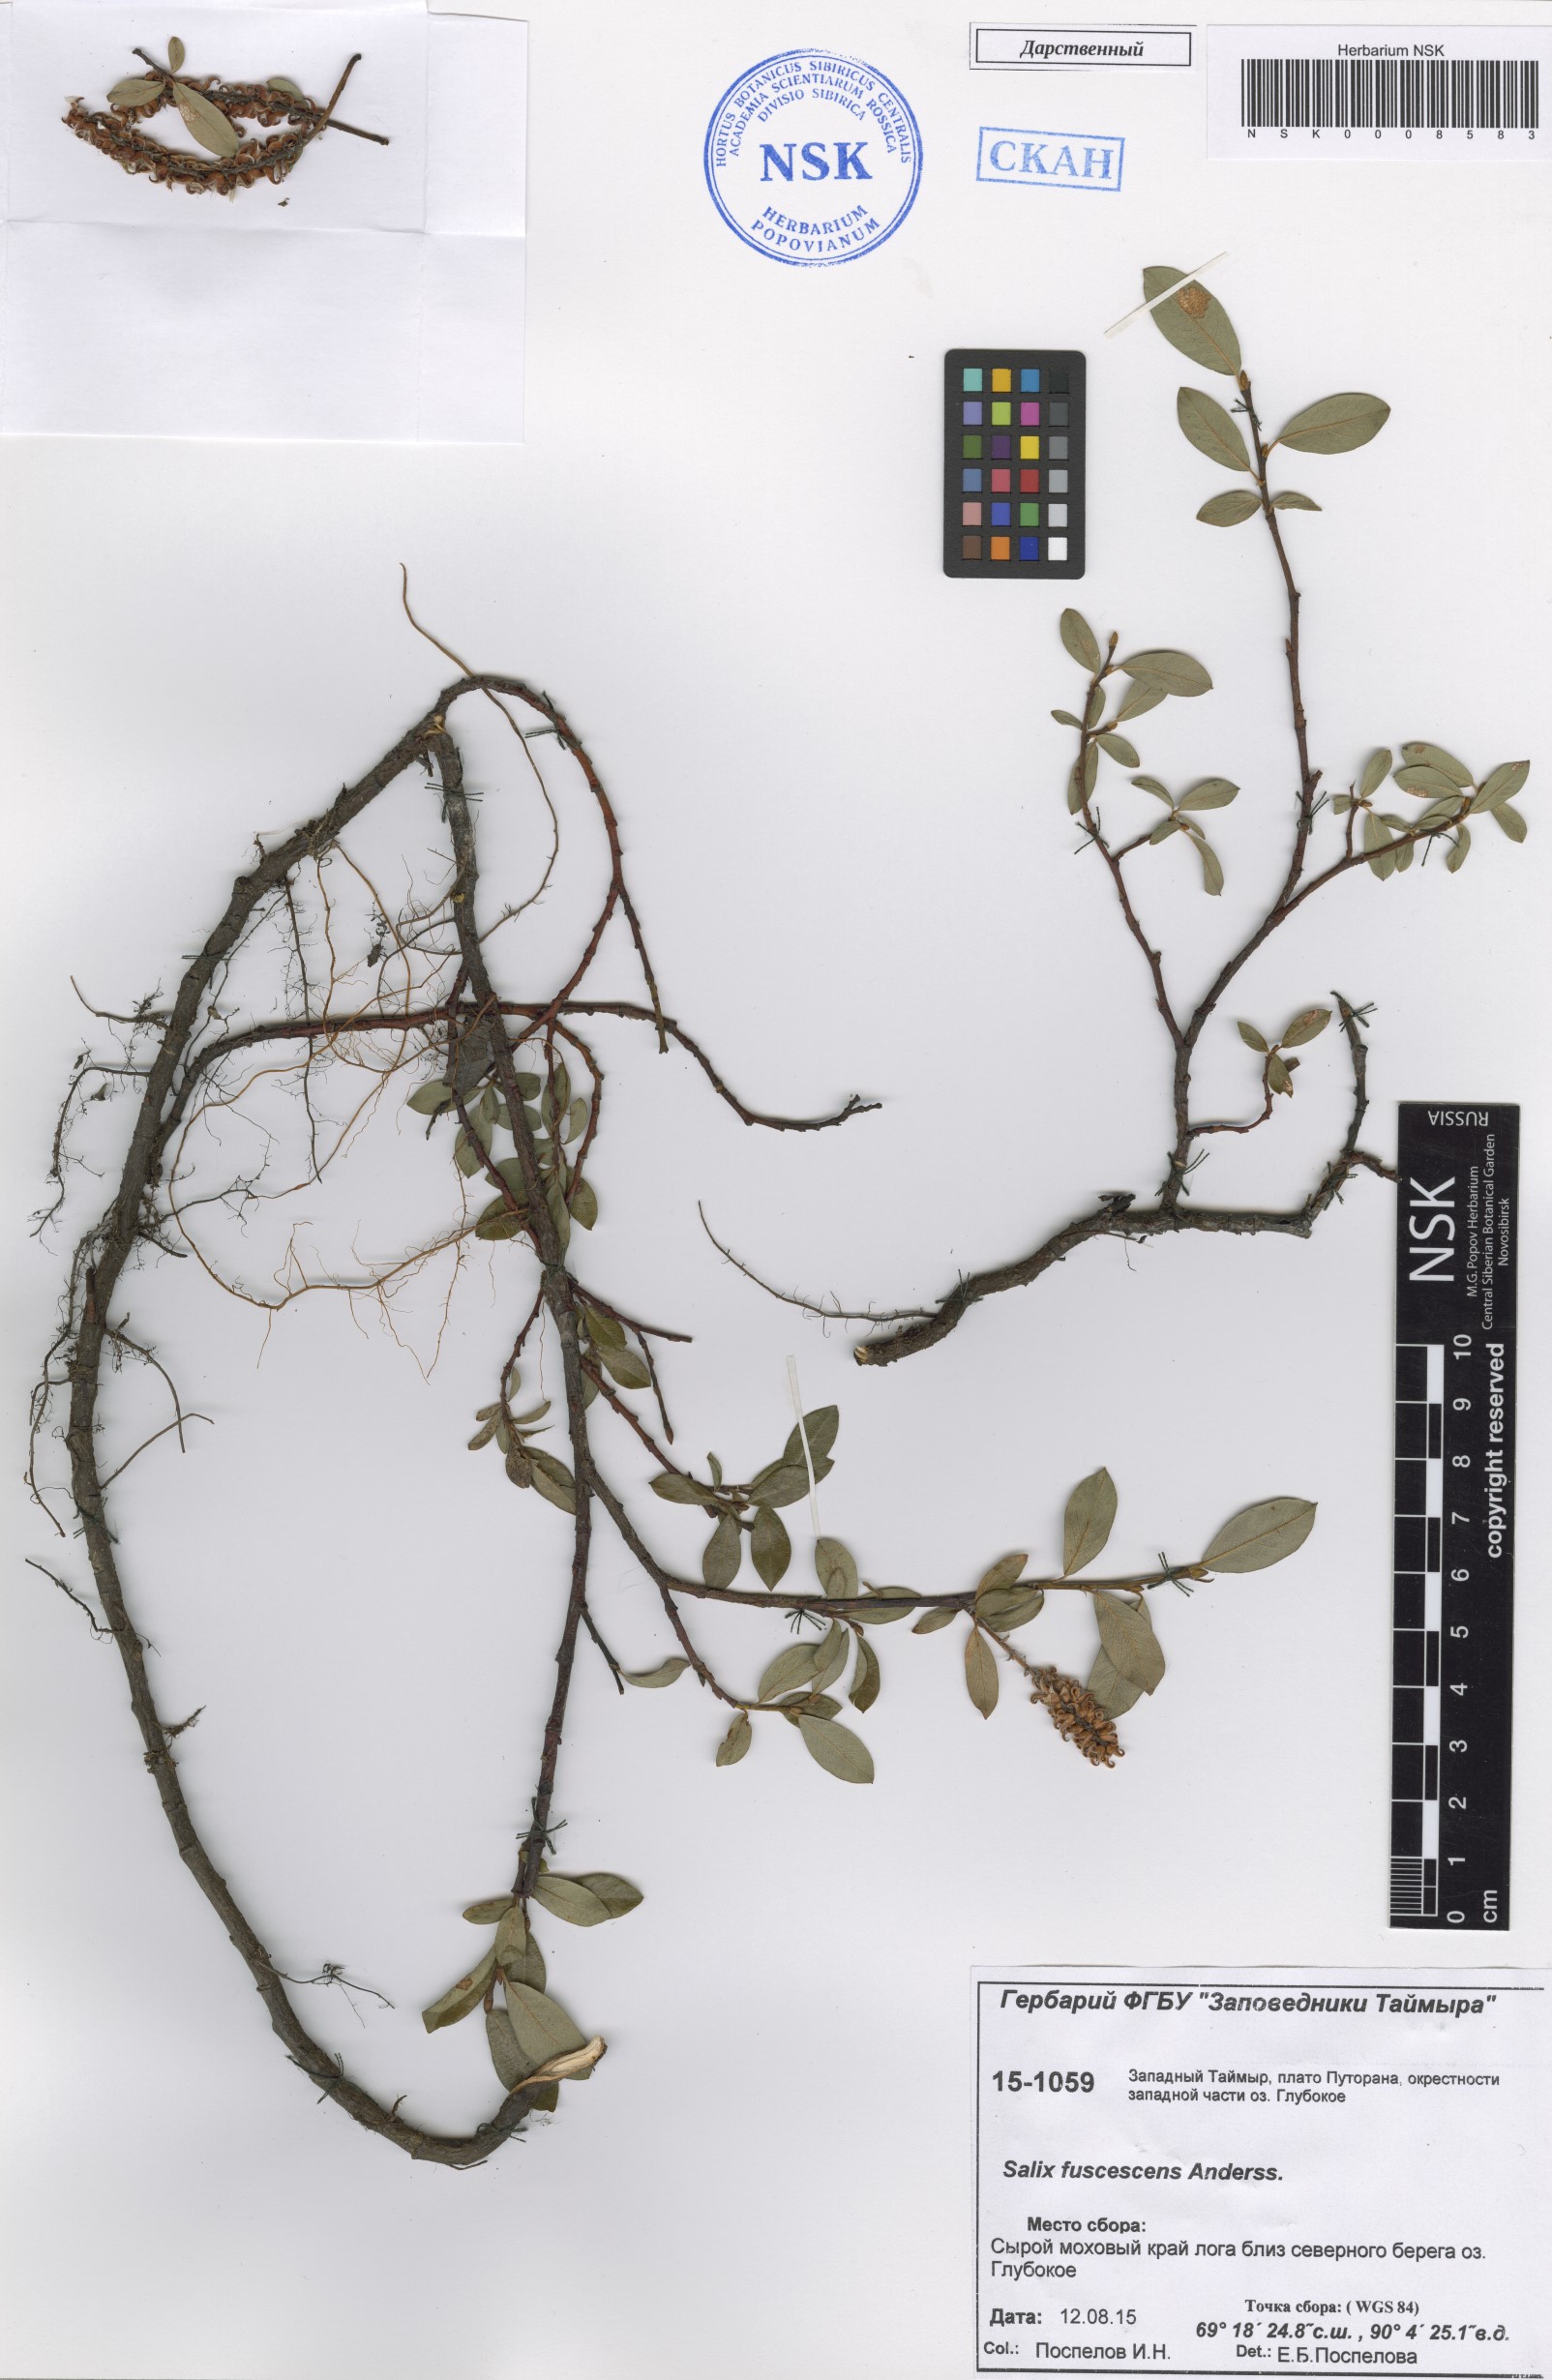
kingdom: Plantae
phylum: Tracheophyta
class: Magnoliopsida
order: Malpighiales
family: Salicaceae
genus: Salix
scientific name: Salix fuscescens
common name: Brownish willow
